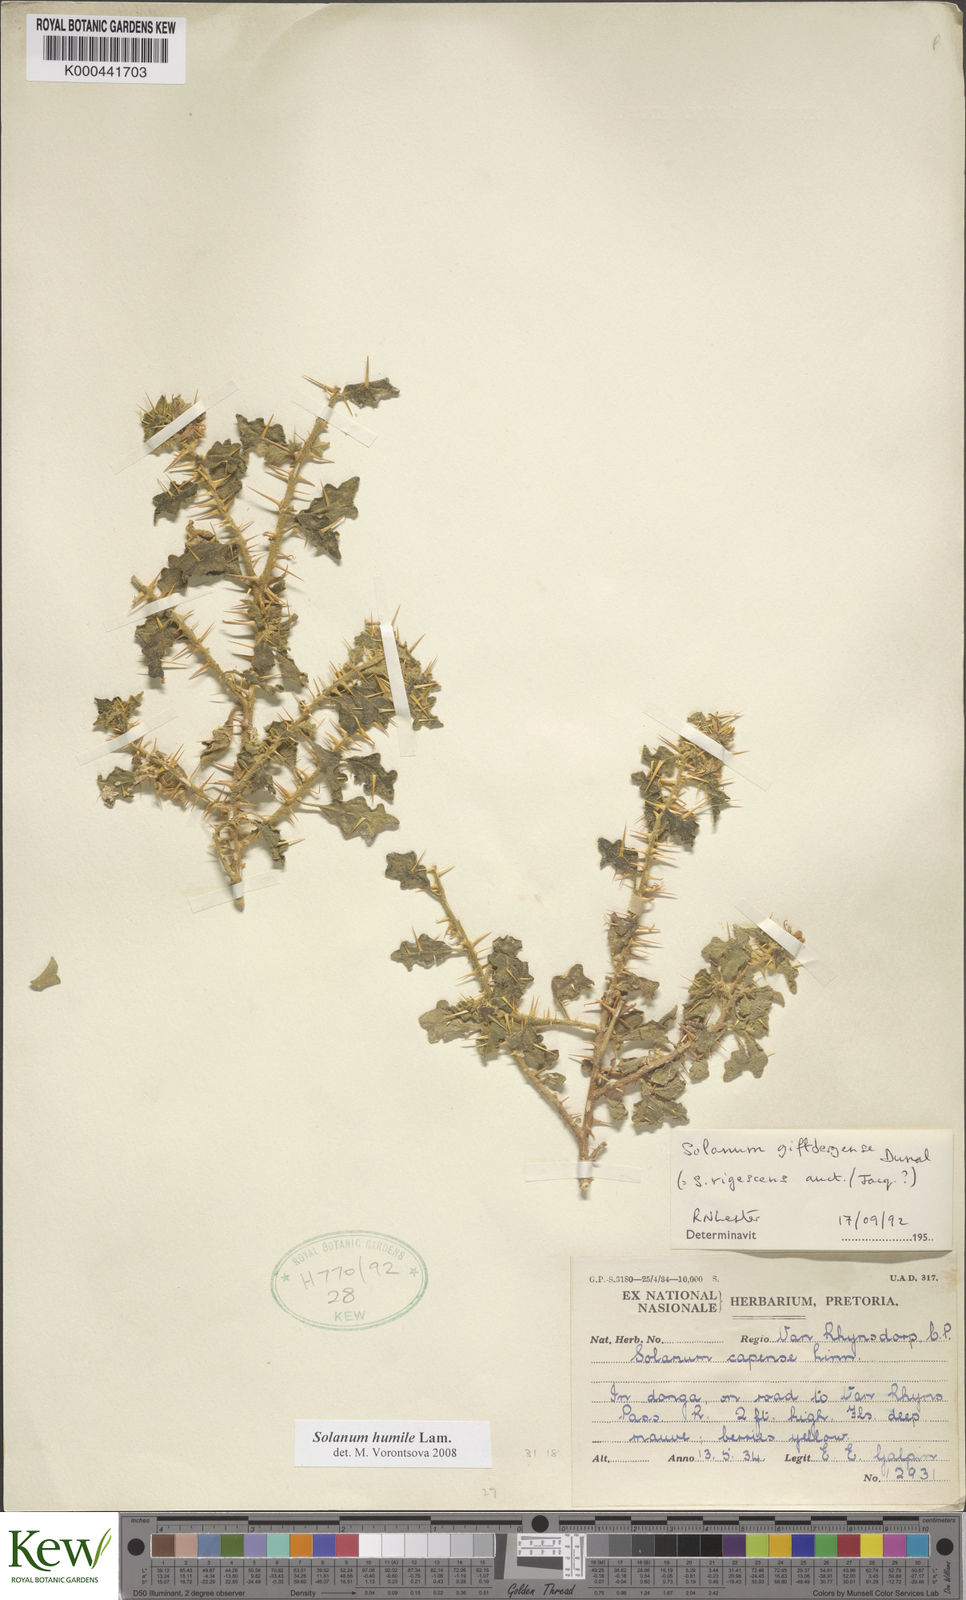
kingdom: Plantae
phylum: Tracheophyta
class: Magnoliopsida
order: Solanales
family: Solanaceae
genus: Solanum
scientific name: Solanum humile
